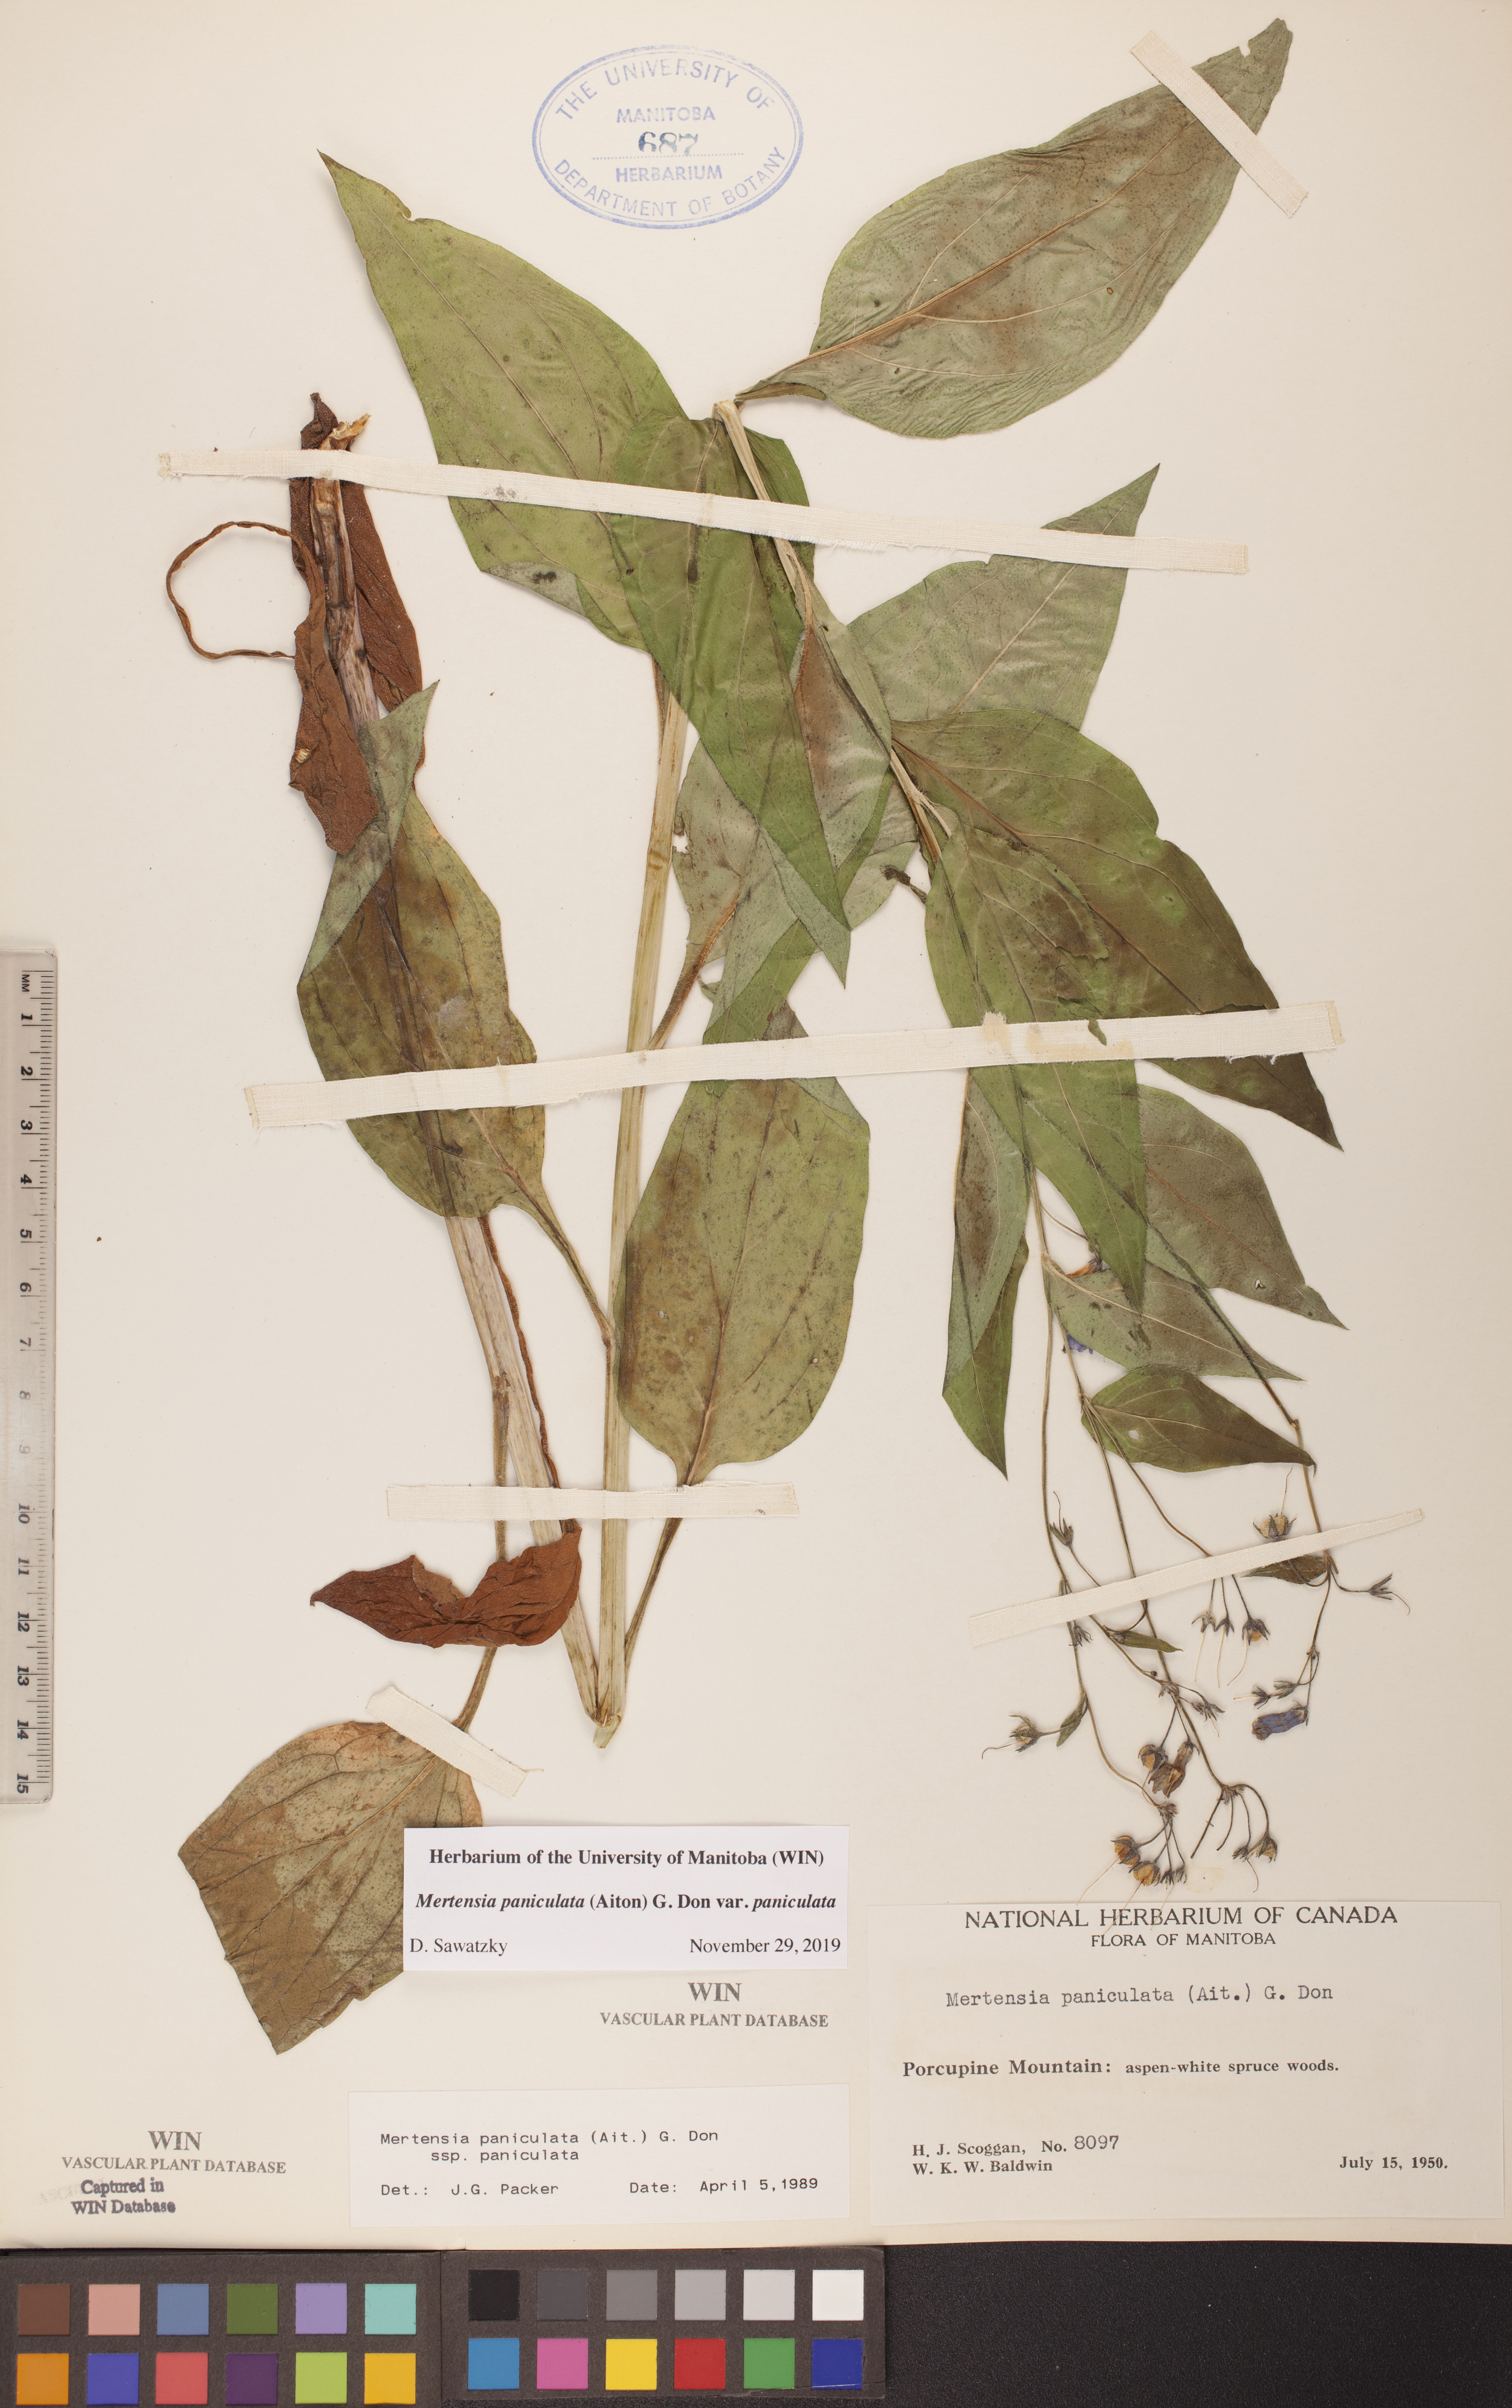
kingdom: Plantae
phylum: Tracheophyta
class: Magnoliopsida
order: Boraginales
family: Boraginaceae
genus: Mertensia
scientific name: Mertensia paniculata
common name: Panicled bluebells
